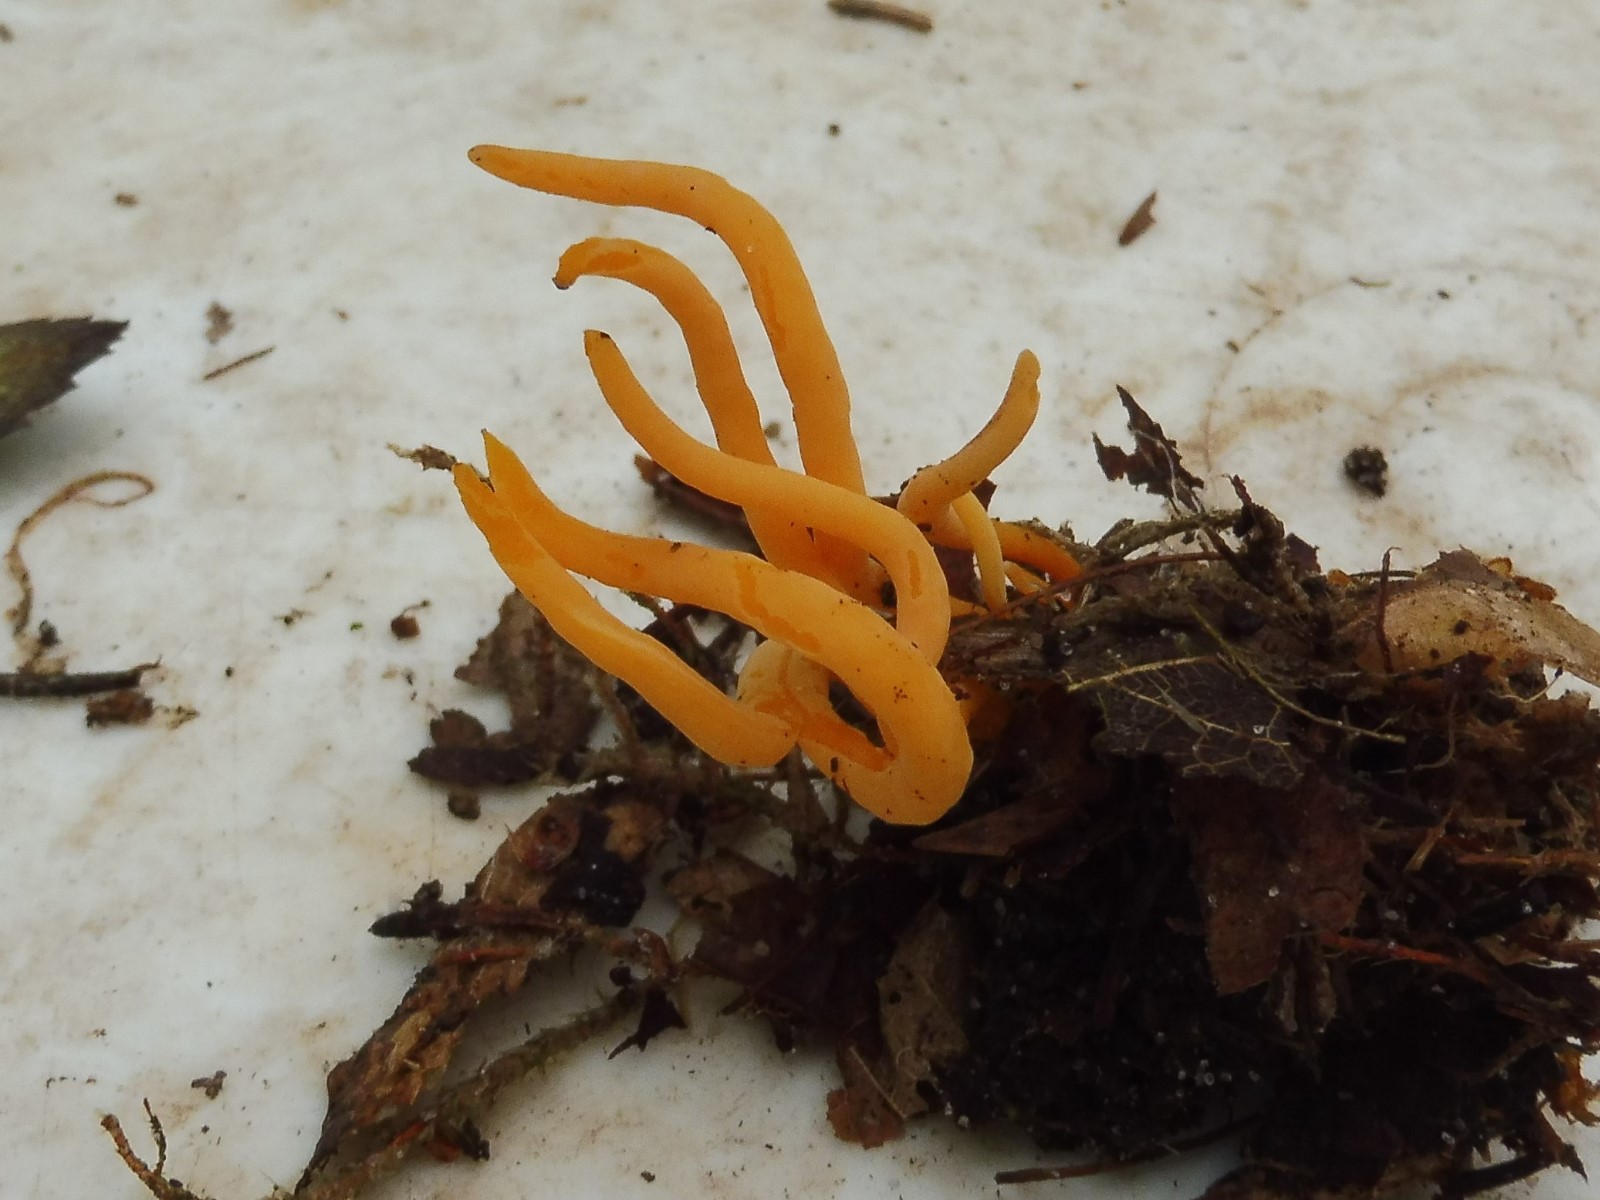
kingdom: Fungi
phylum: Basidiomycota
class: Agaricomycetes
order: Agaricales
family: Clavariaceae
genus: Clavulinopsis
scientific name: Clavulinopsis
